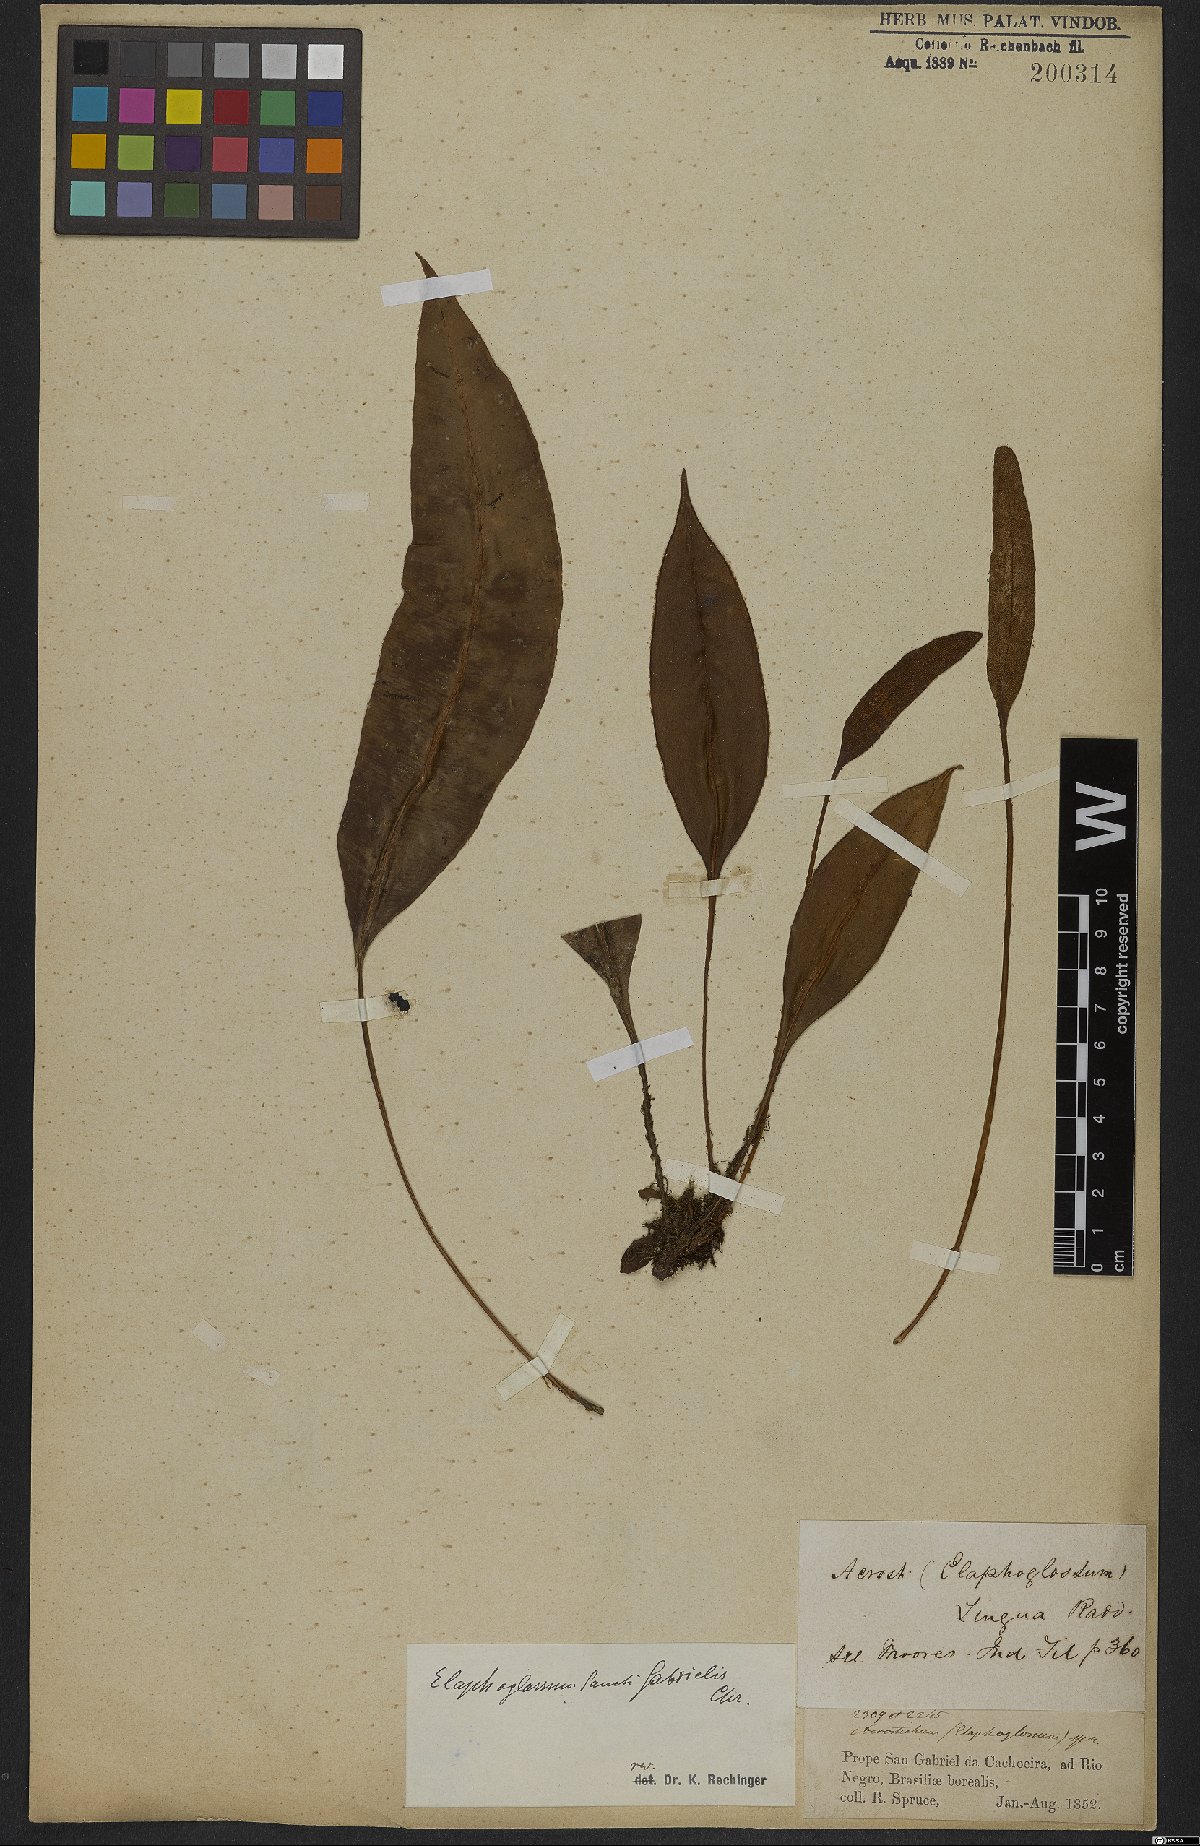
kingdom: Plantae
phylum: Tracheophyta
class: Polypodiopsida
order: Polypodiales
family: Dryopteridaceae
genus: Elaphoglossum
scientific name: Elaphoglossum discolor
